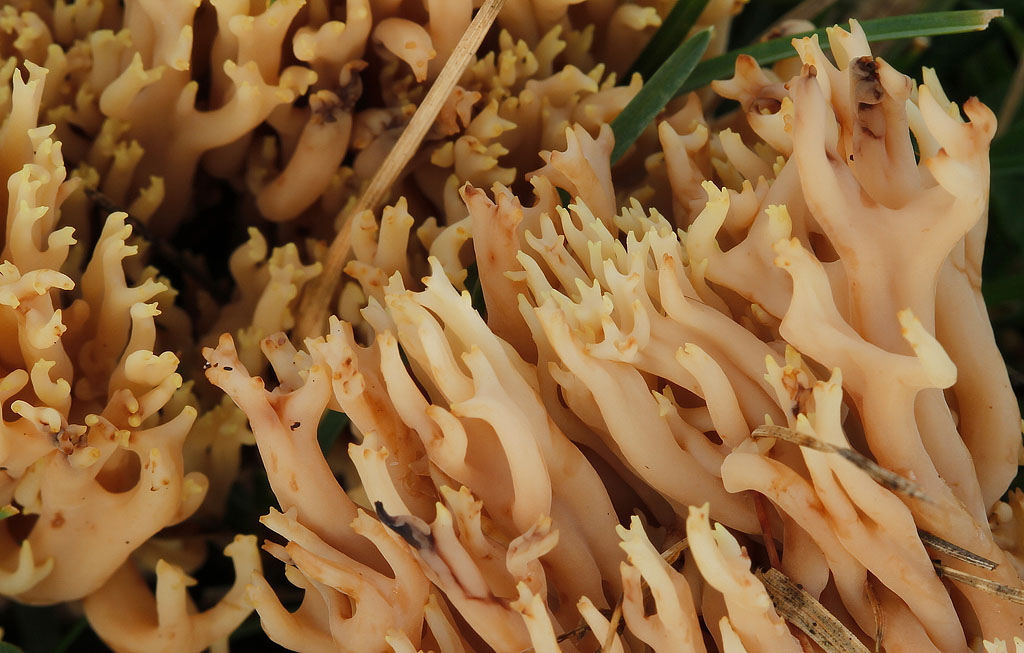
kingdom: Fungi
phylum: Basidiomycota
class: Agaricomycetes
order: Gomphales
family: Gomphaceae
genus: Ramaria
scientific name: Ramaria stricta
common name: rank koralsvamp
